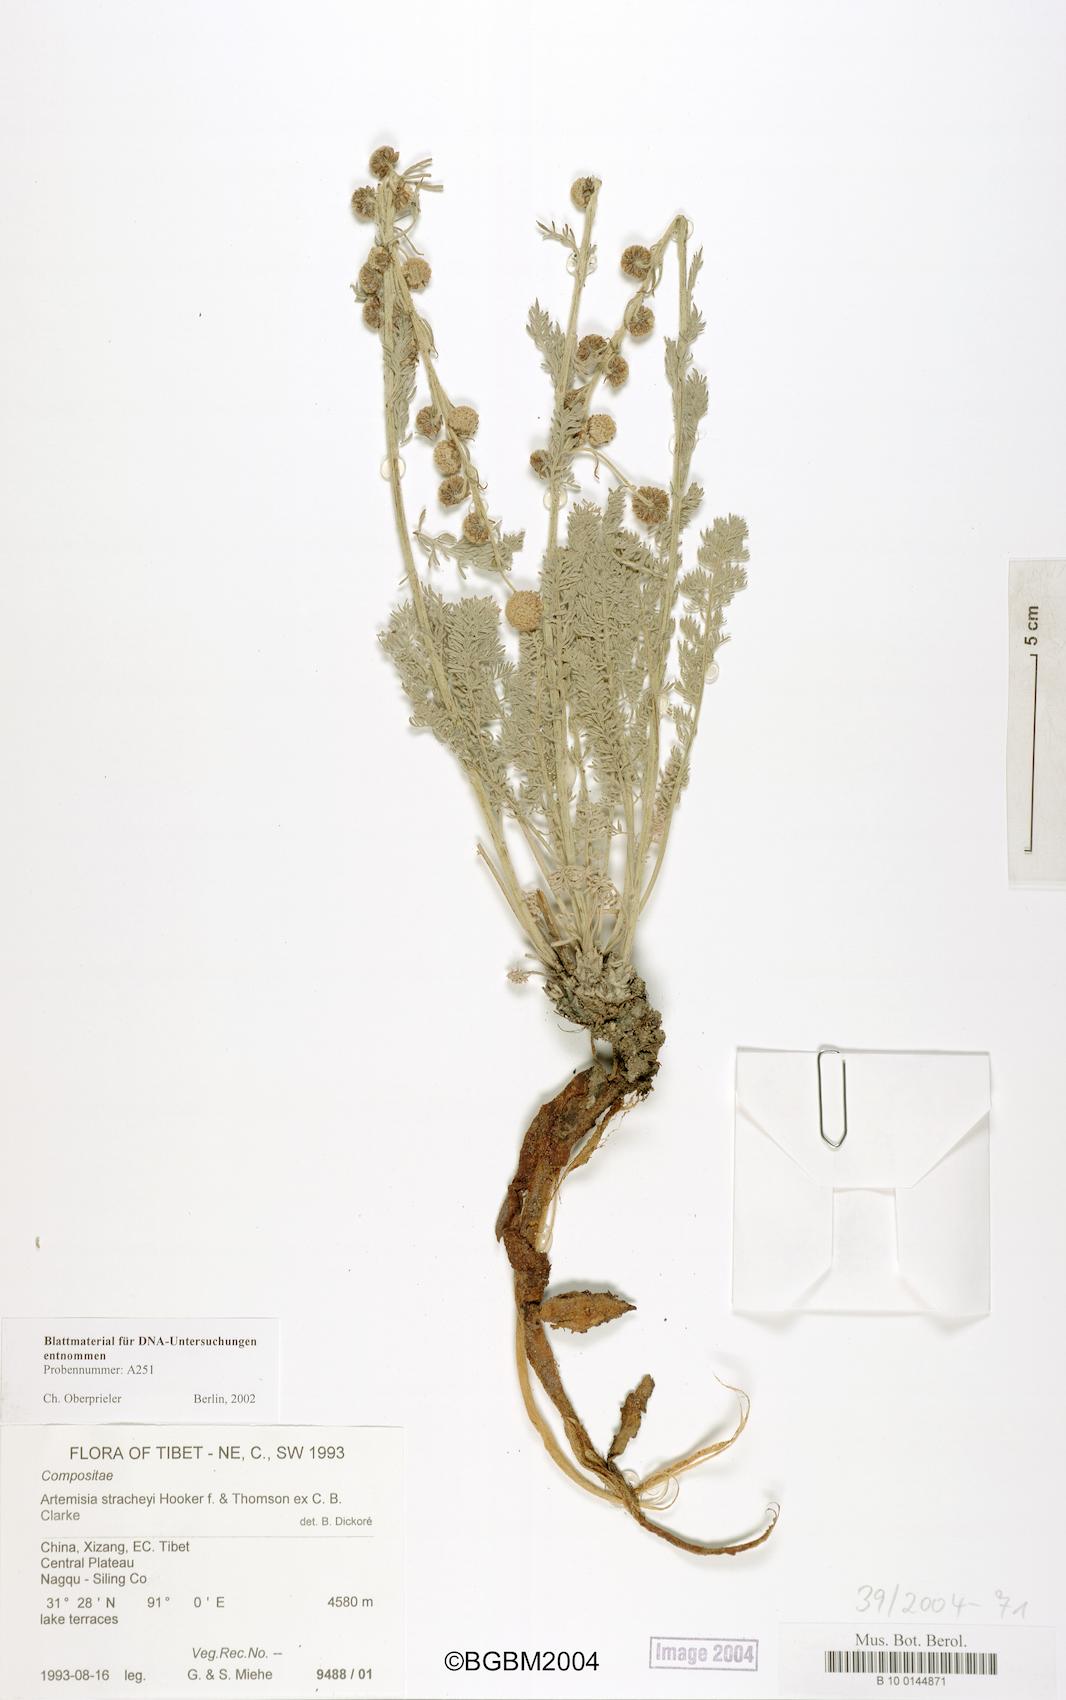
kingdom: Plantae
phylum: Tracheophyta
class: Magnoliopsida
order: Asterales
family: Asteraceae
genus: Artemisiella
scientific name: Artemisiella stracheyi
